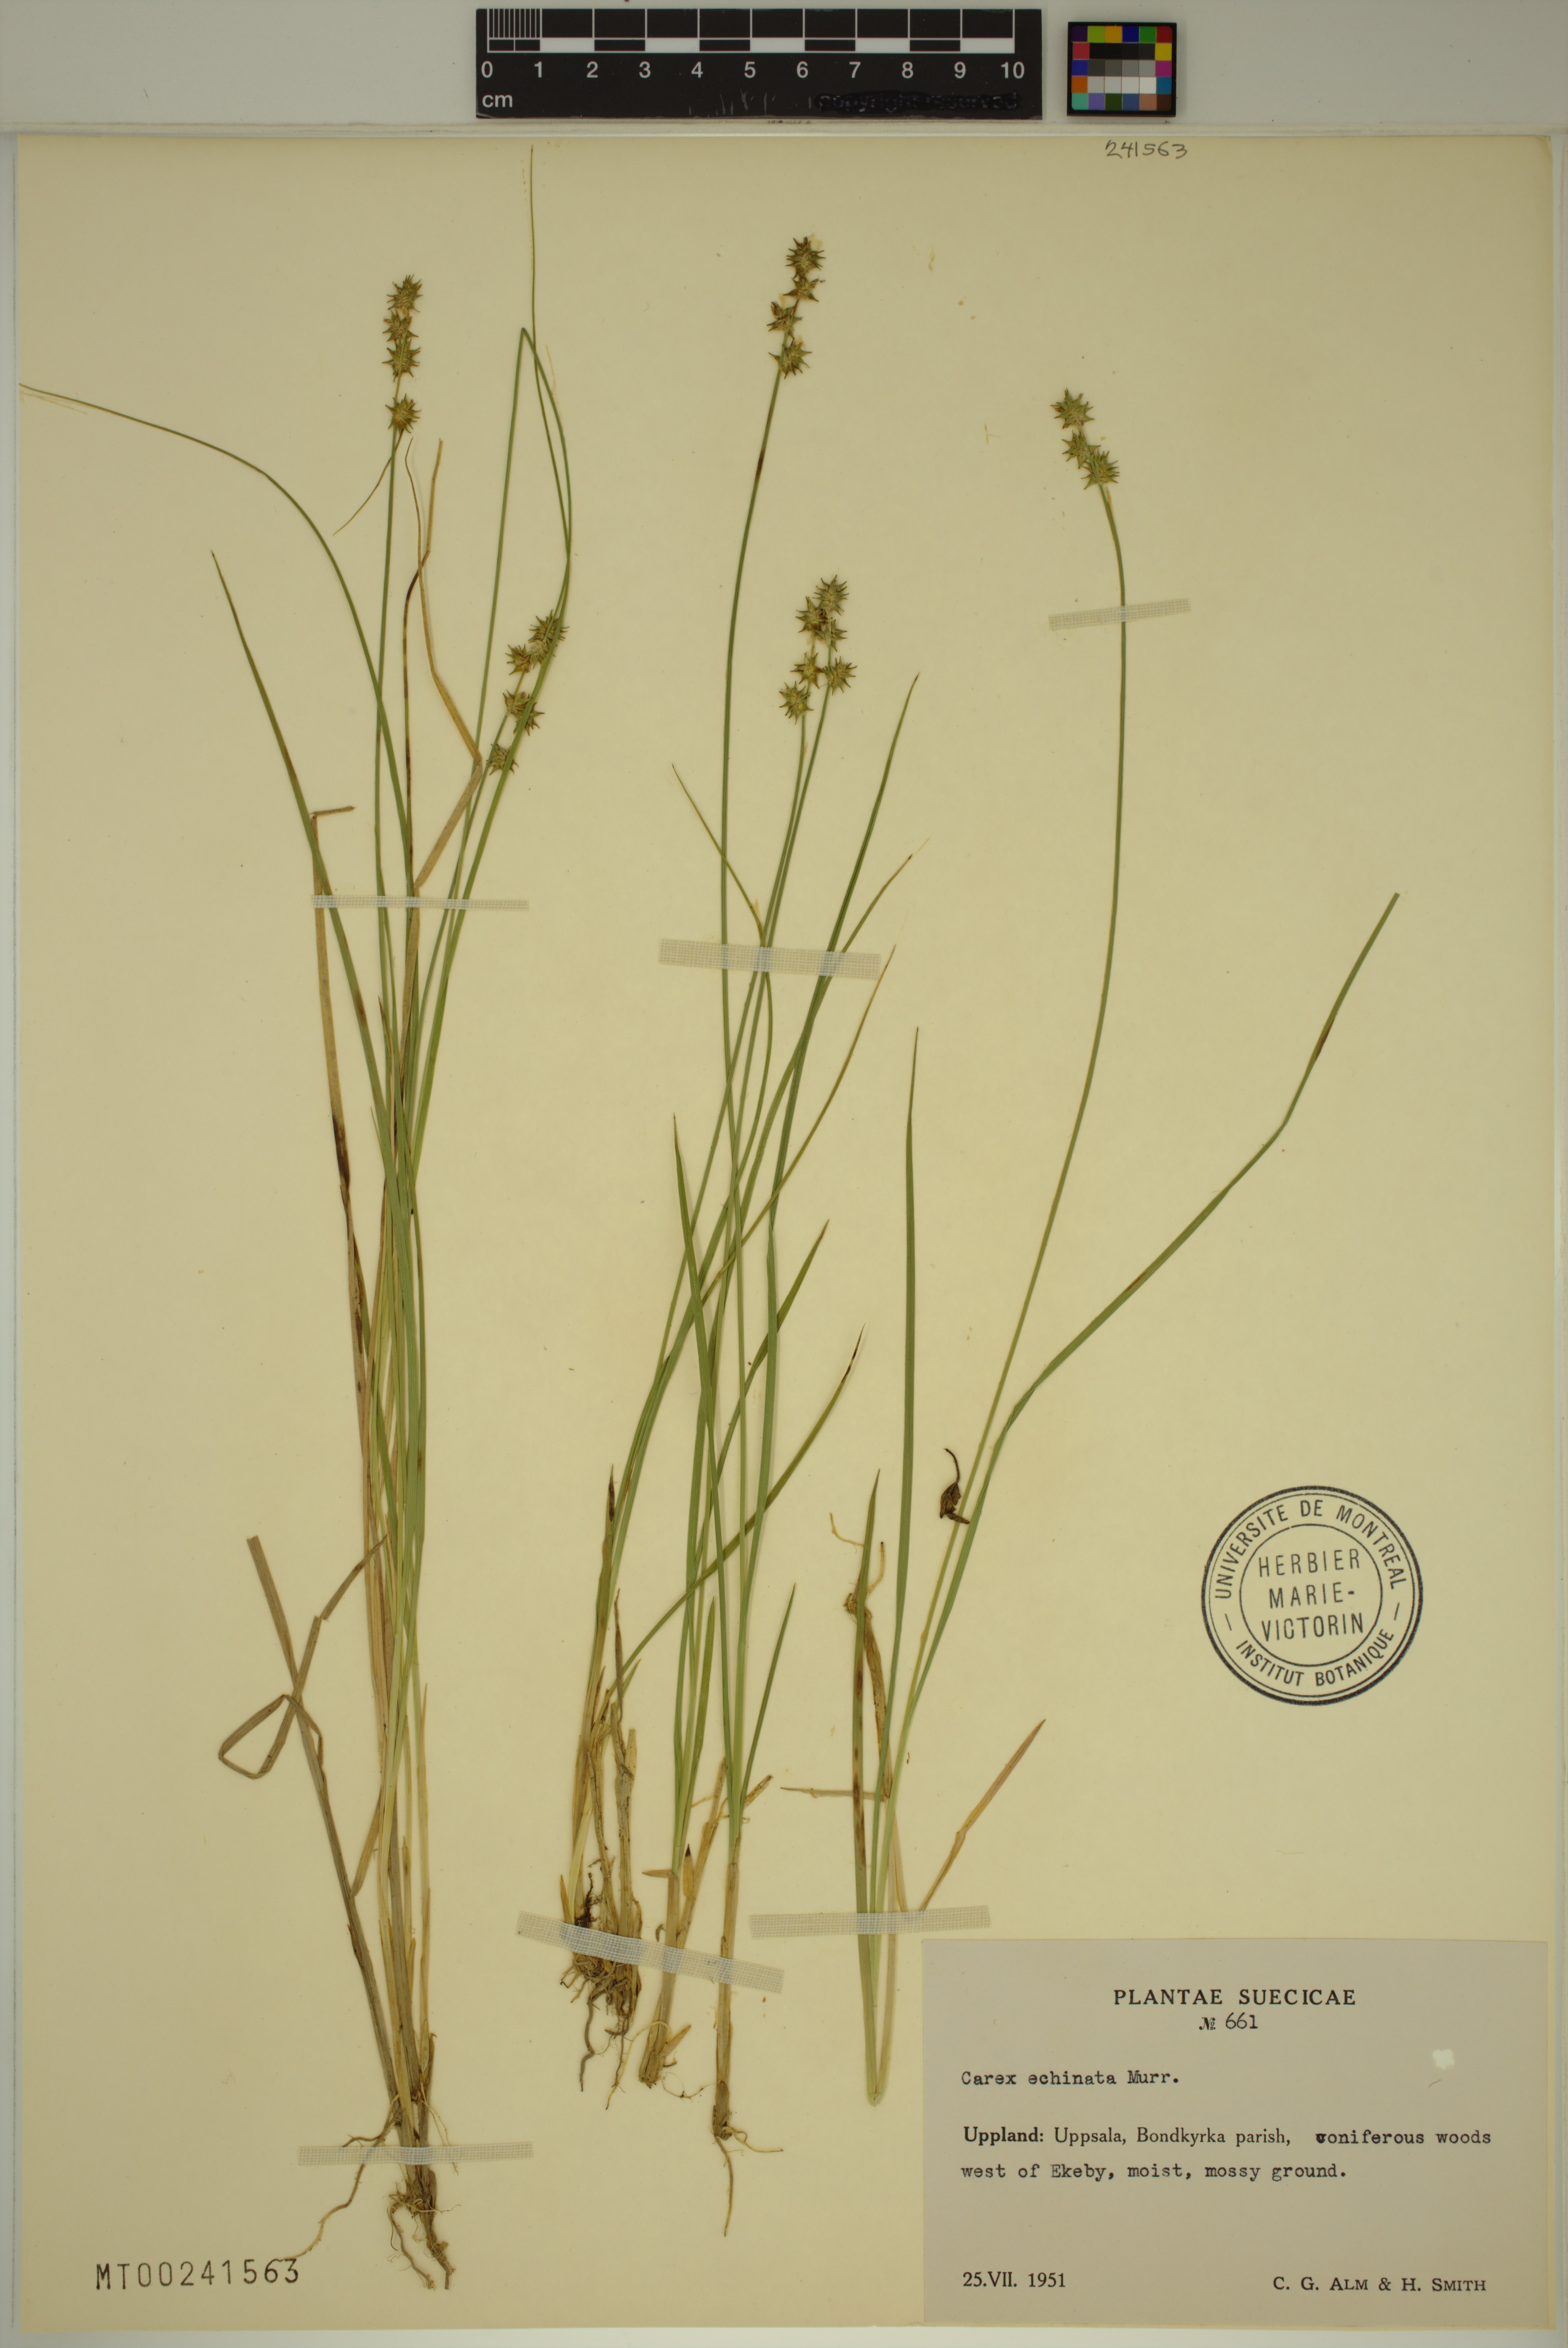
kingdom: Plantae
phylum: Tracheophyta
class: Liliopsida
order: Poales
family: Cyperaceae
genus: Carex
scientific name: Carex echinata
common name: Star sedge
